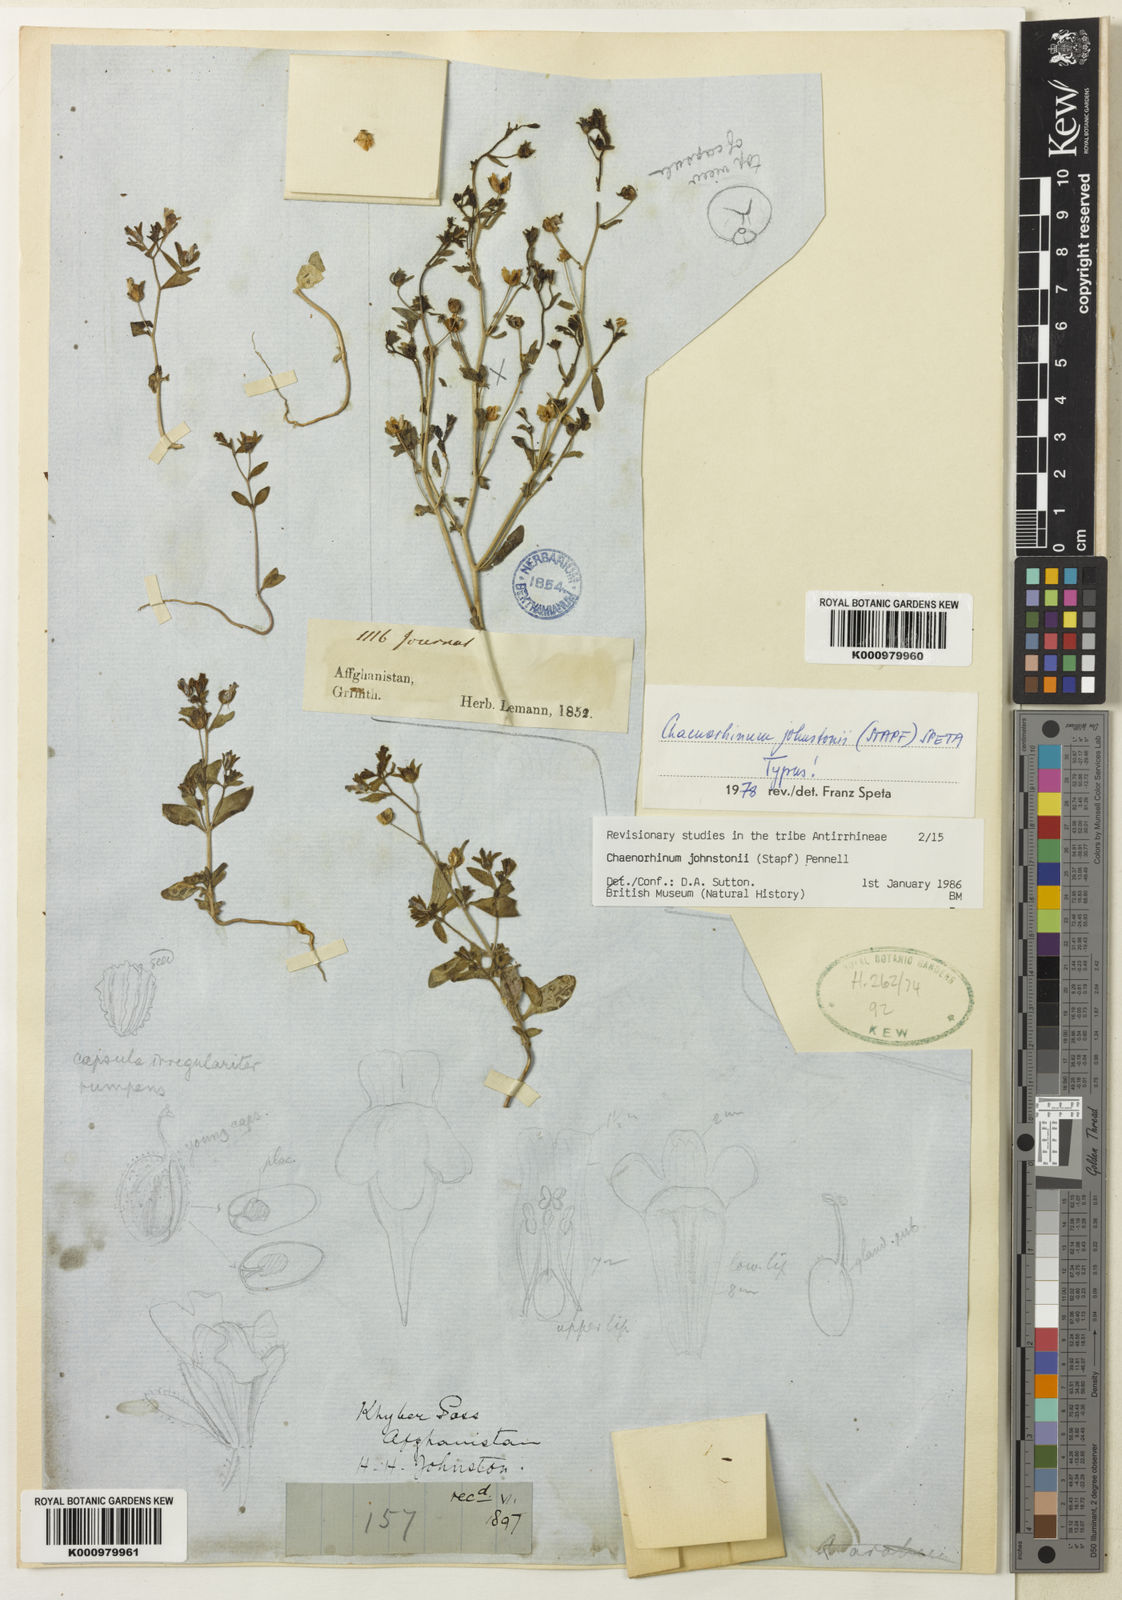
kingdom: Plantae
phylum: Tracheophyta
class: Magnoliopsida
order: Lamiales
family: Plantaginaceae
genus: Chaenorhinum
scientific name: Chaenorhinum johnstonii
